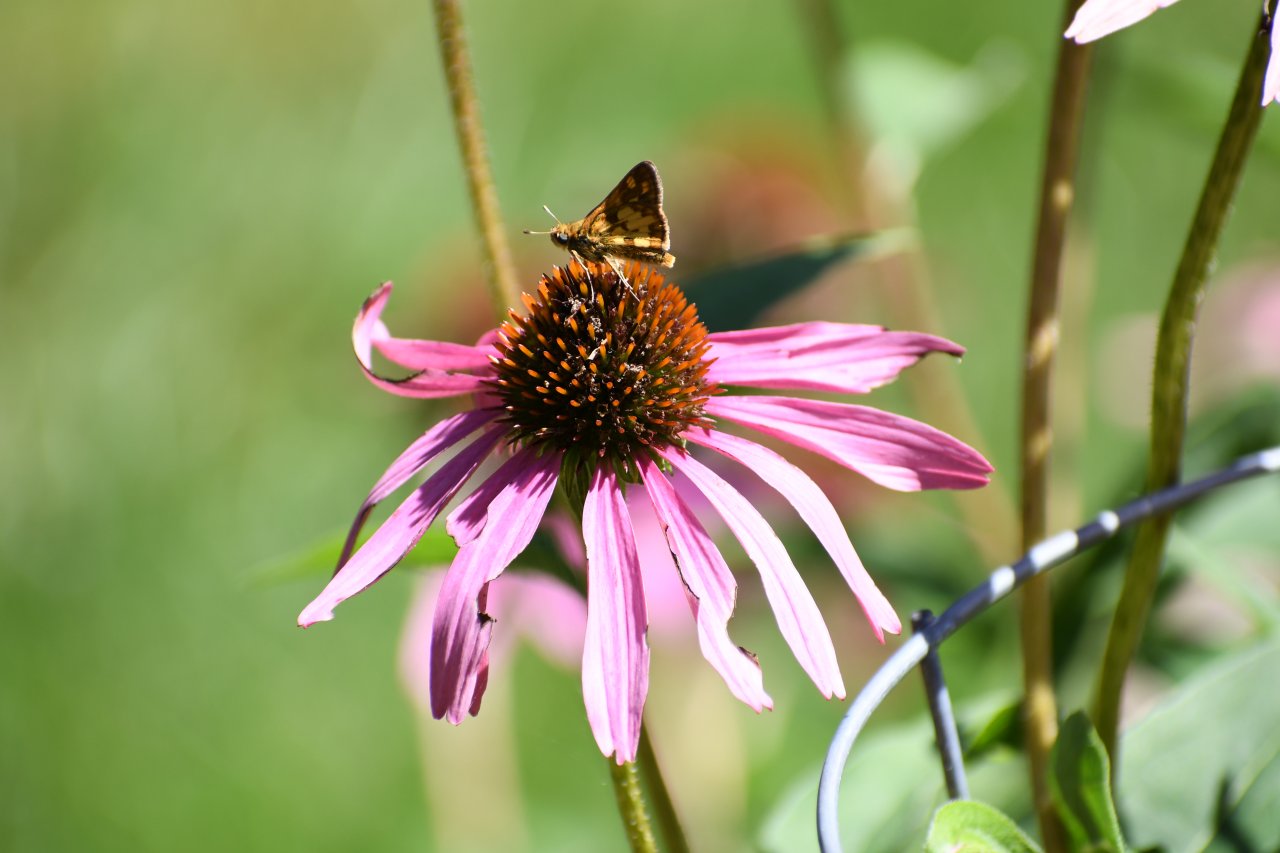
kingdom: Animalia
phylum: Arthropoda
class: Insecta
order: Lepidoptera
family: Hesperiidae
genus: Polites
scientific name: Polites coras
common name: Peck's Skipper
